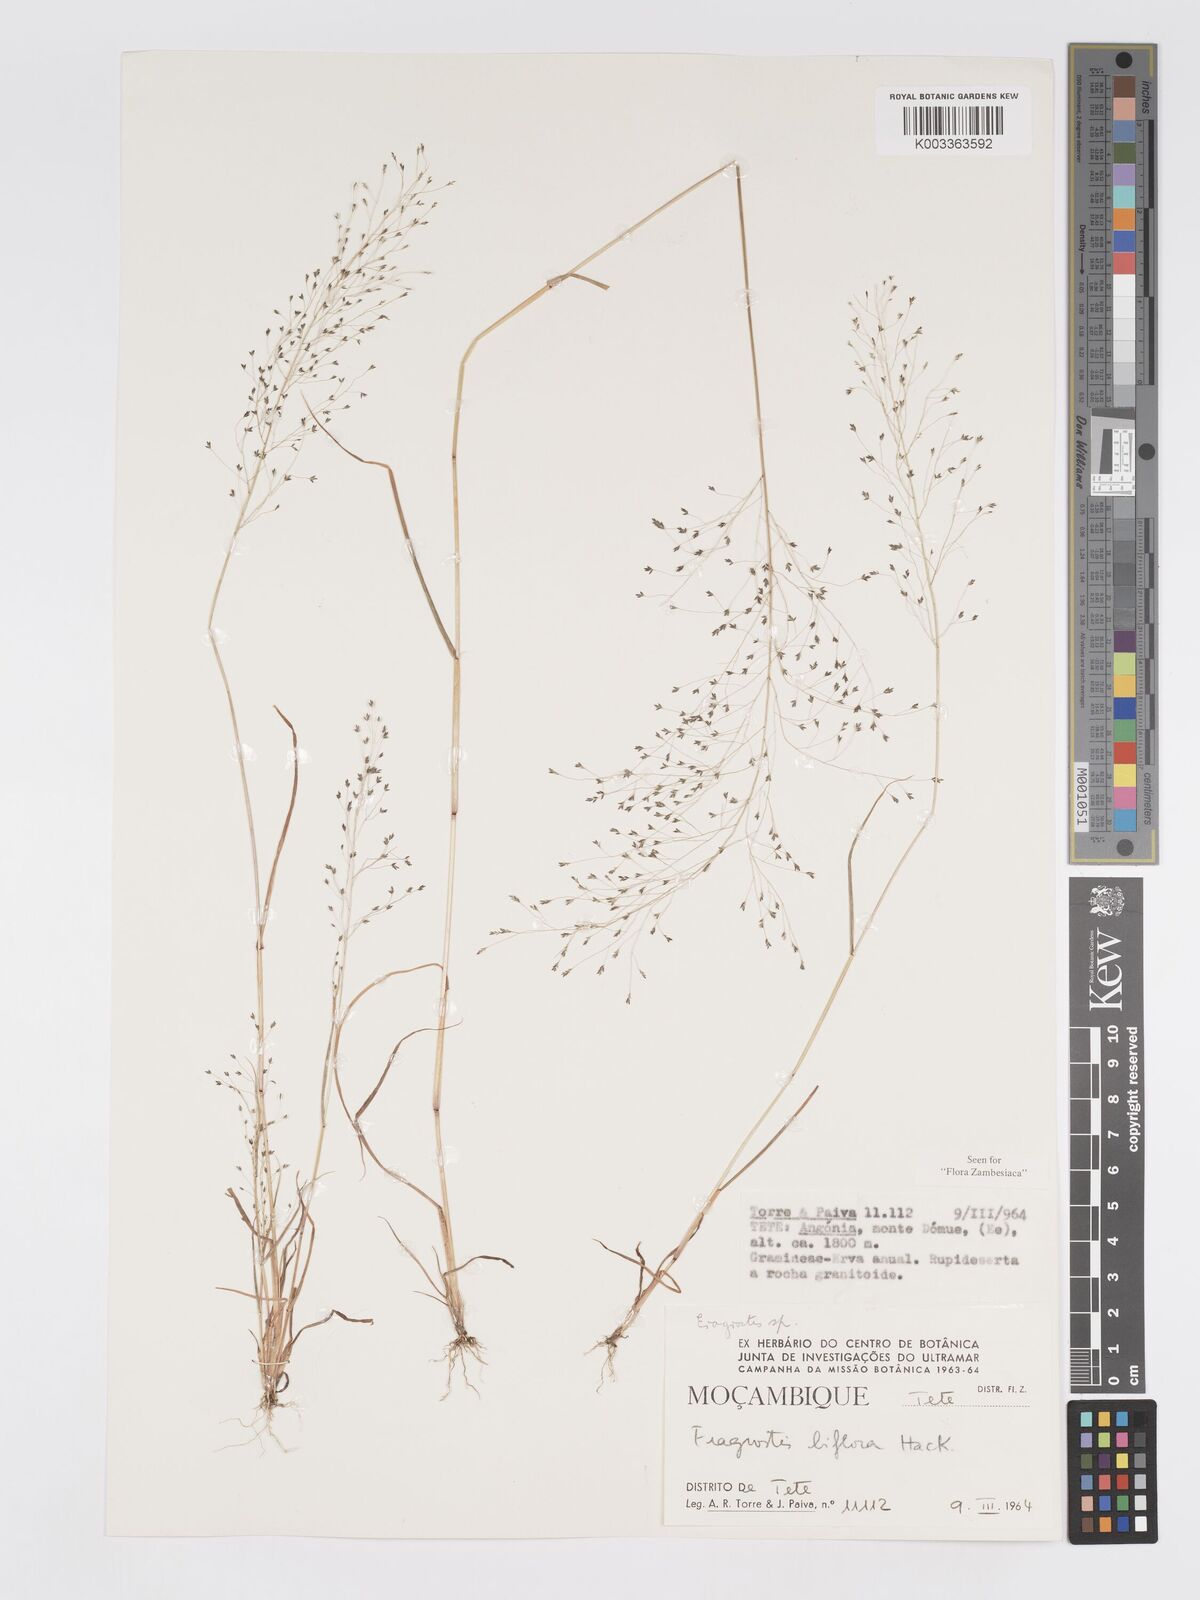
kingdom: Plantae
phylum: Tracheophyta
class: Liliopsida
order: Poales
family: Poaceae
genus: Eragrostis
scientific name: Eragrostis macilenta
